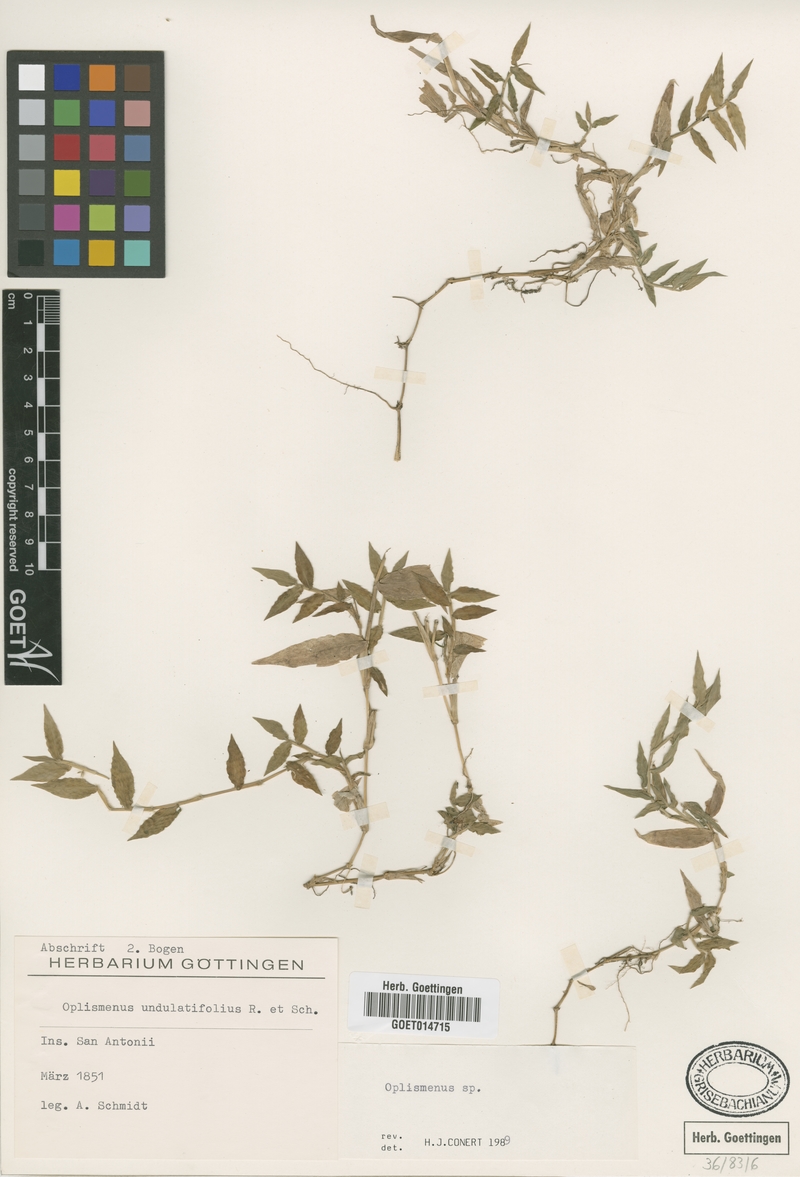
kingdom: Plantae
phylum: Tracheophyta
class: Liliopsida
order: Poales
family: Poaceae
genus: Oplismenus
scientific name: Oplismenus
